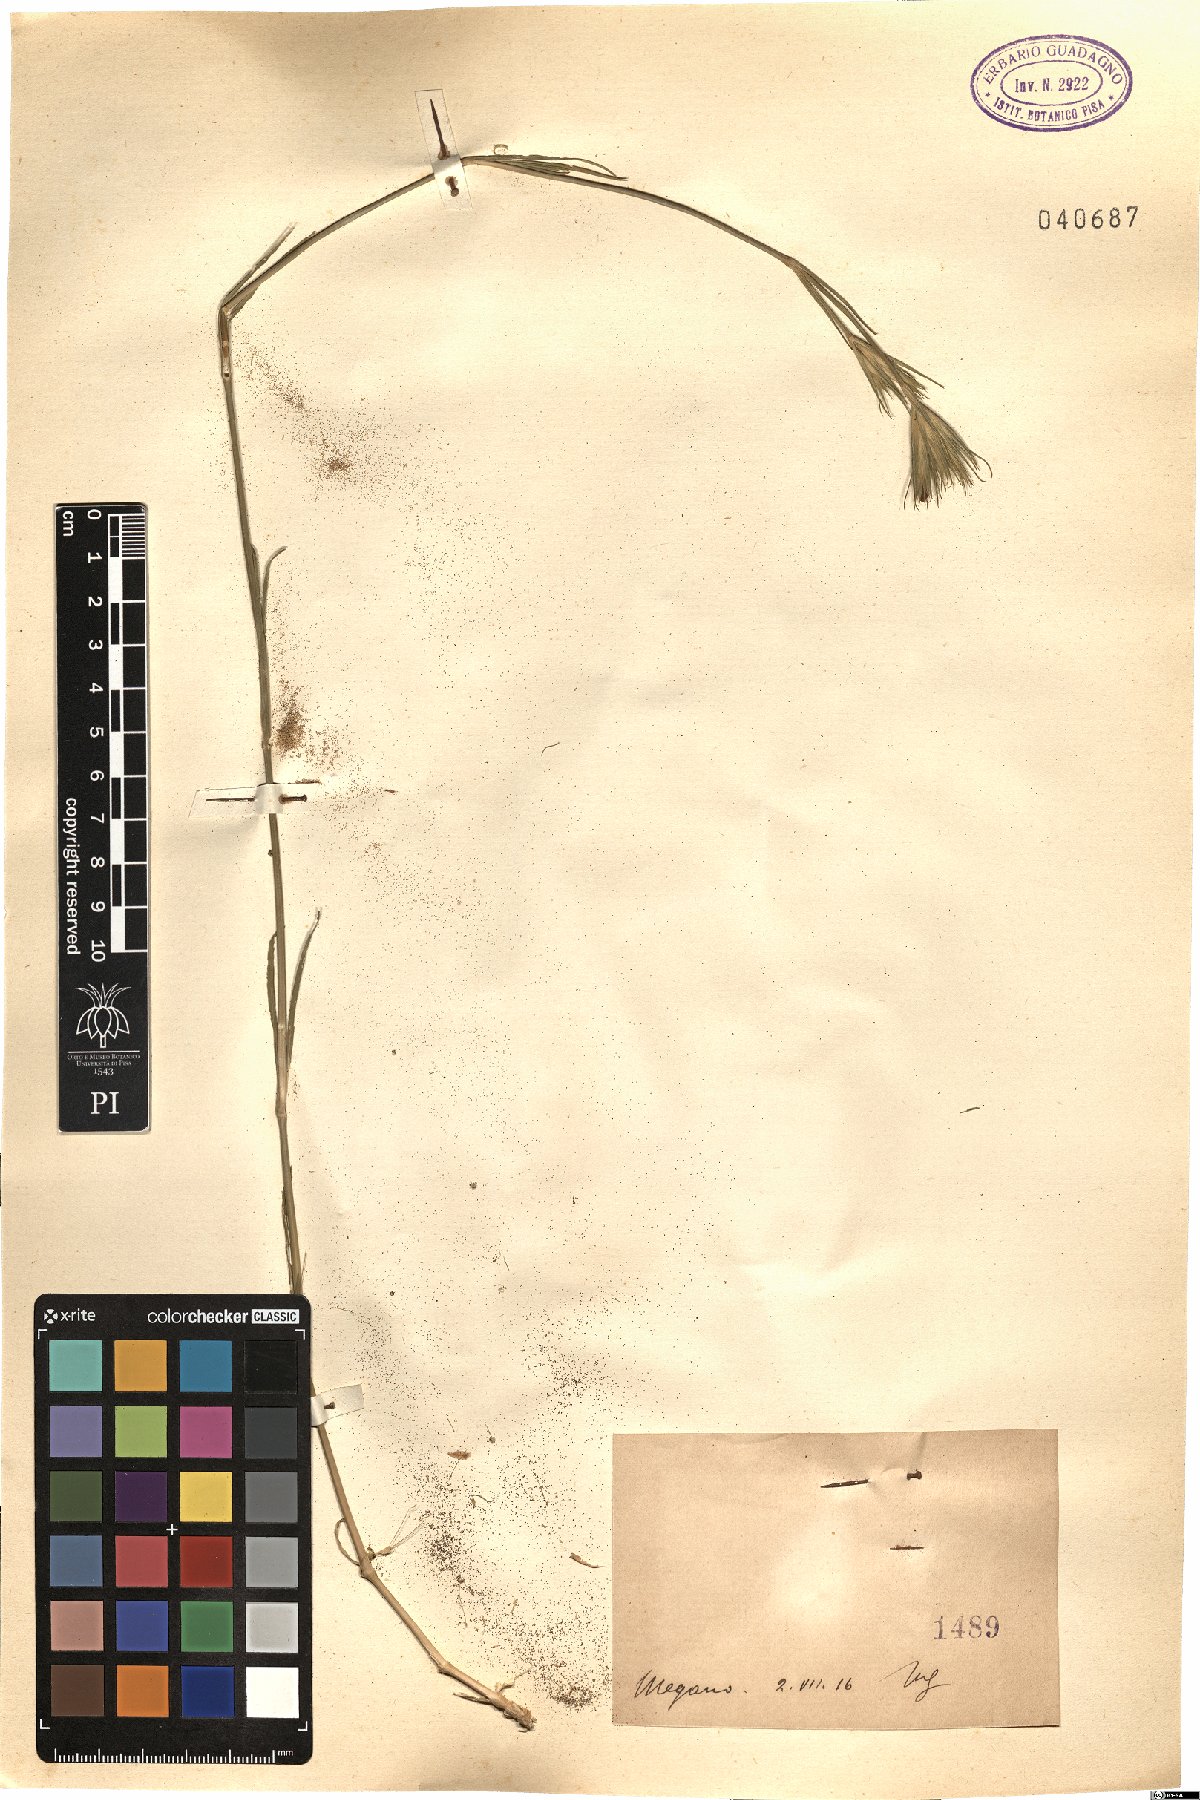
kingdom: Plantae
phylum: Tracheophyta
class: Magnoliopsida
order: Caryophyllales
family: Caryophyllaceae
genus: Dianthus
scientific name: Dianthus
